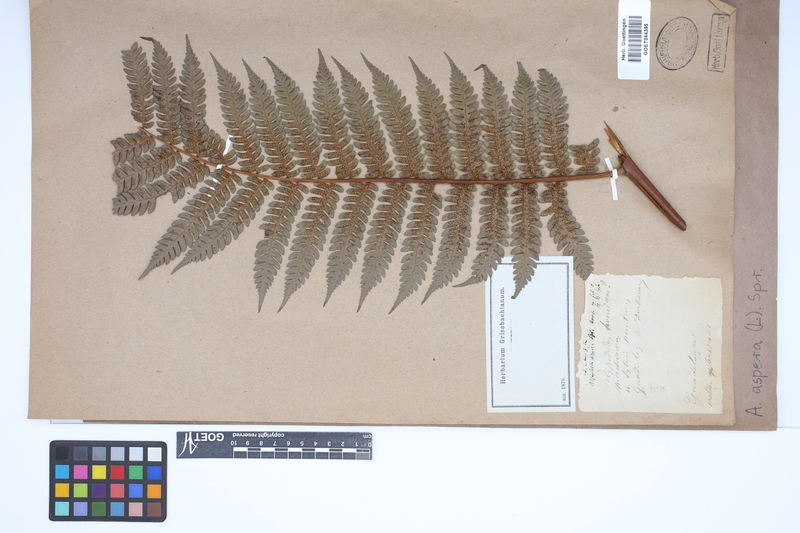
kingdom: Plantae
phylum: Tracheophyta
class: Polypodiopsida
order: Cyatheales
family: Cyatheaceae
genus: Cyathea
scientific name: Cyathea aspera
